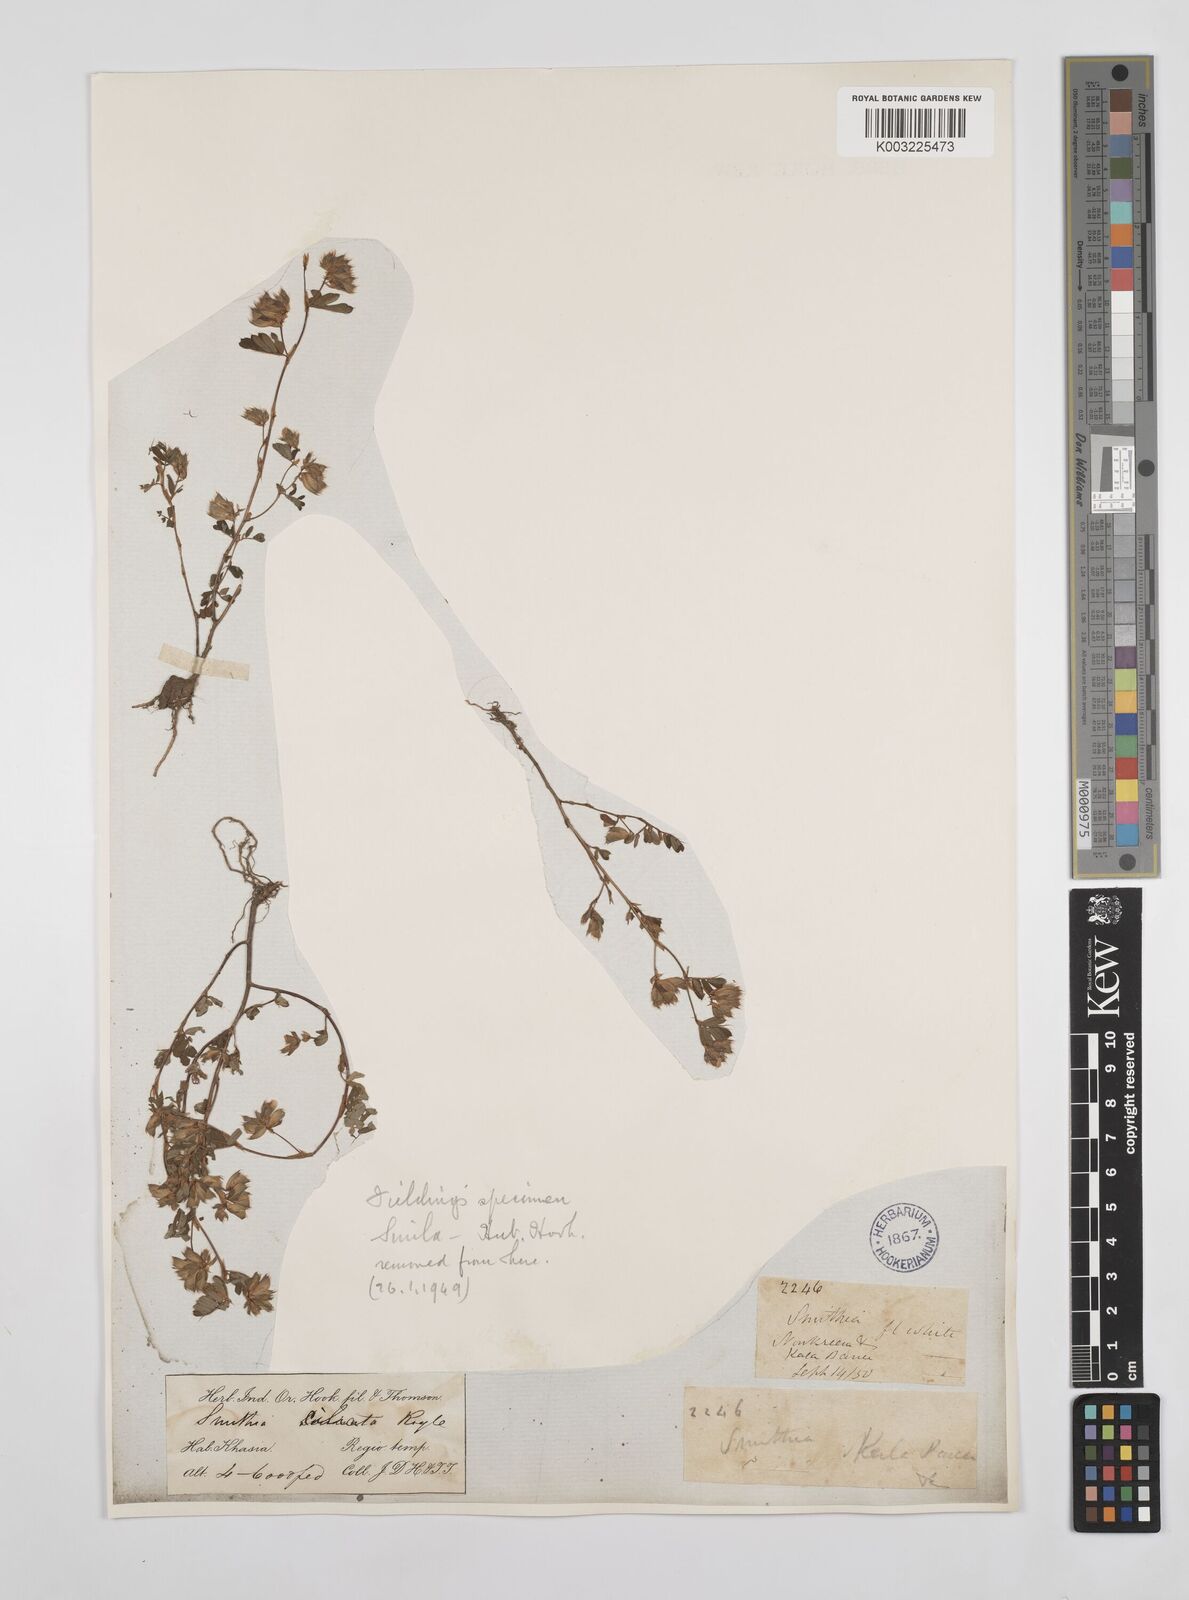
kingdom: Plantae
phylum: Tracheophyta
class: Magnoliopsida
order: Fabales
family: Fabaceae
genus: Smithia
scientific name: Smithia ciliata
